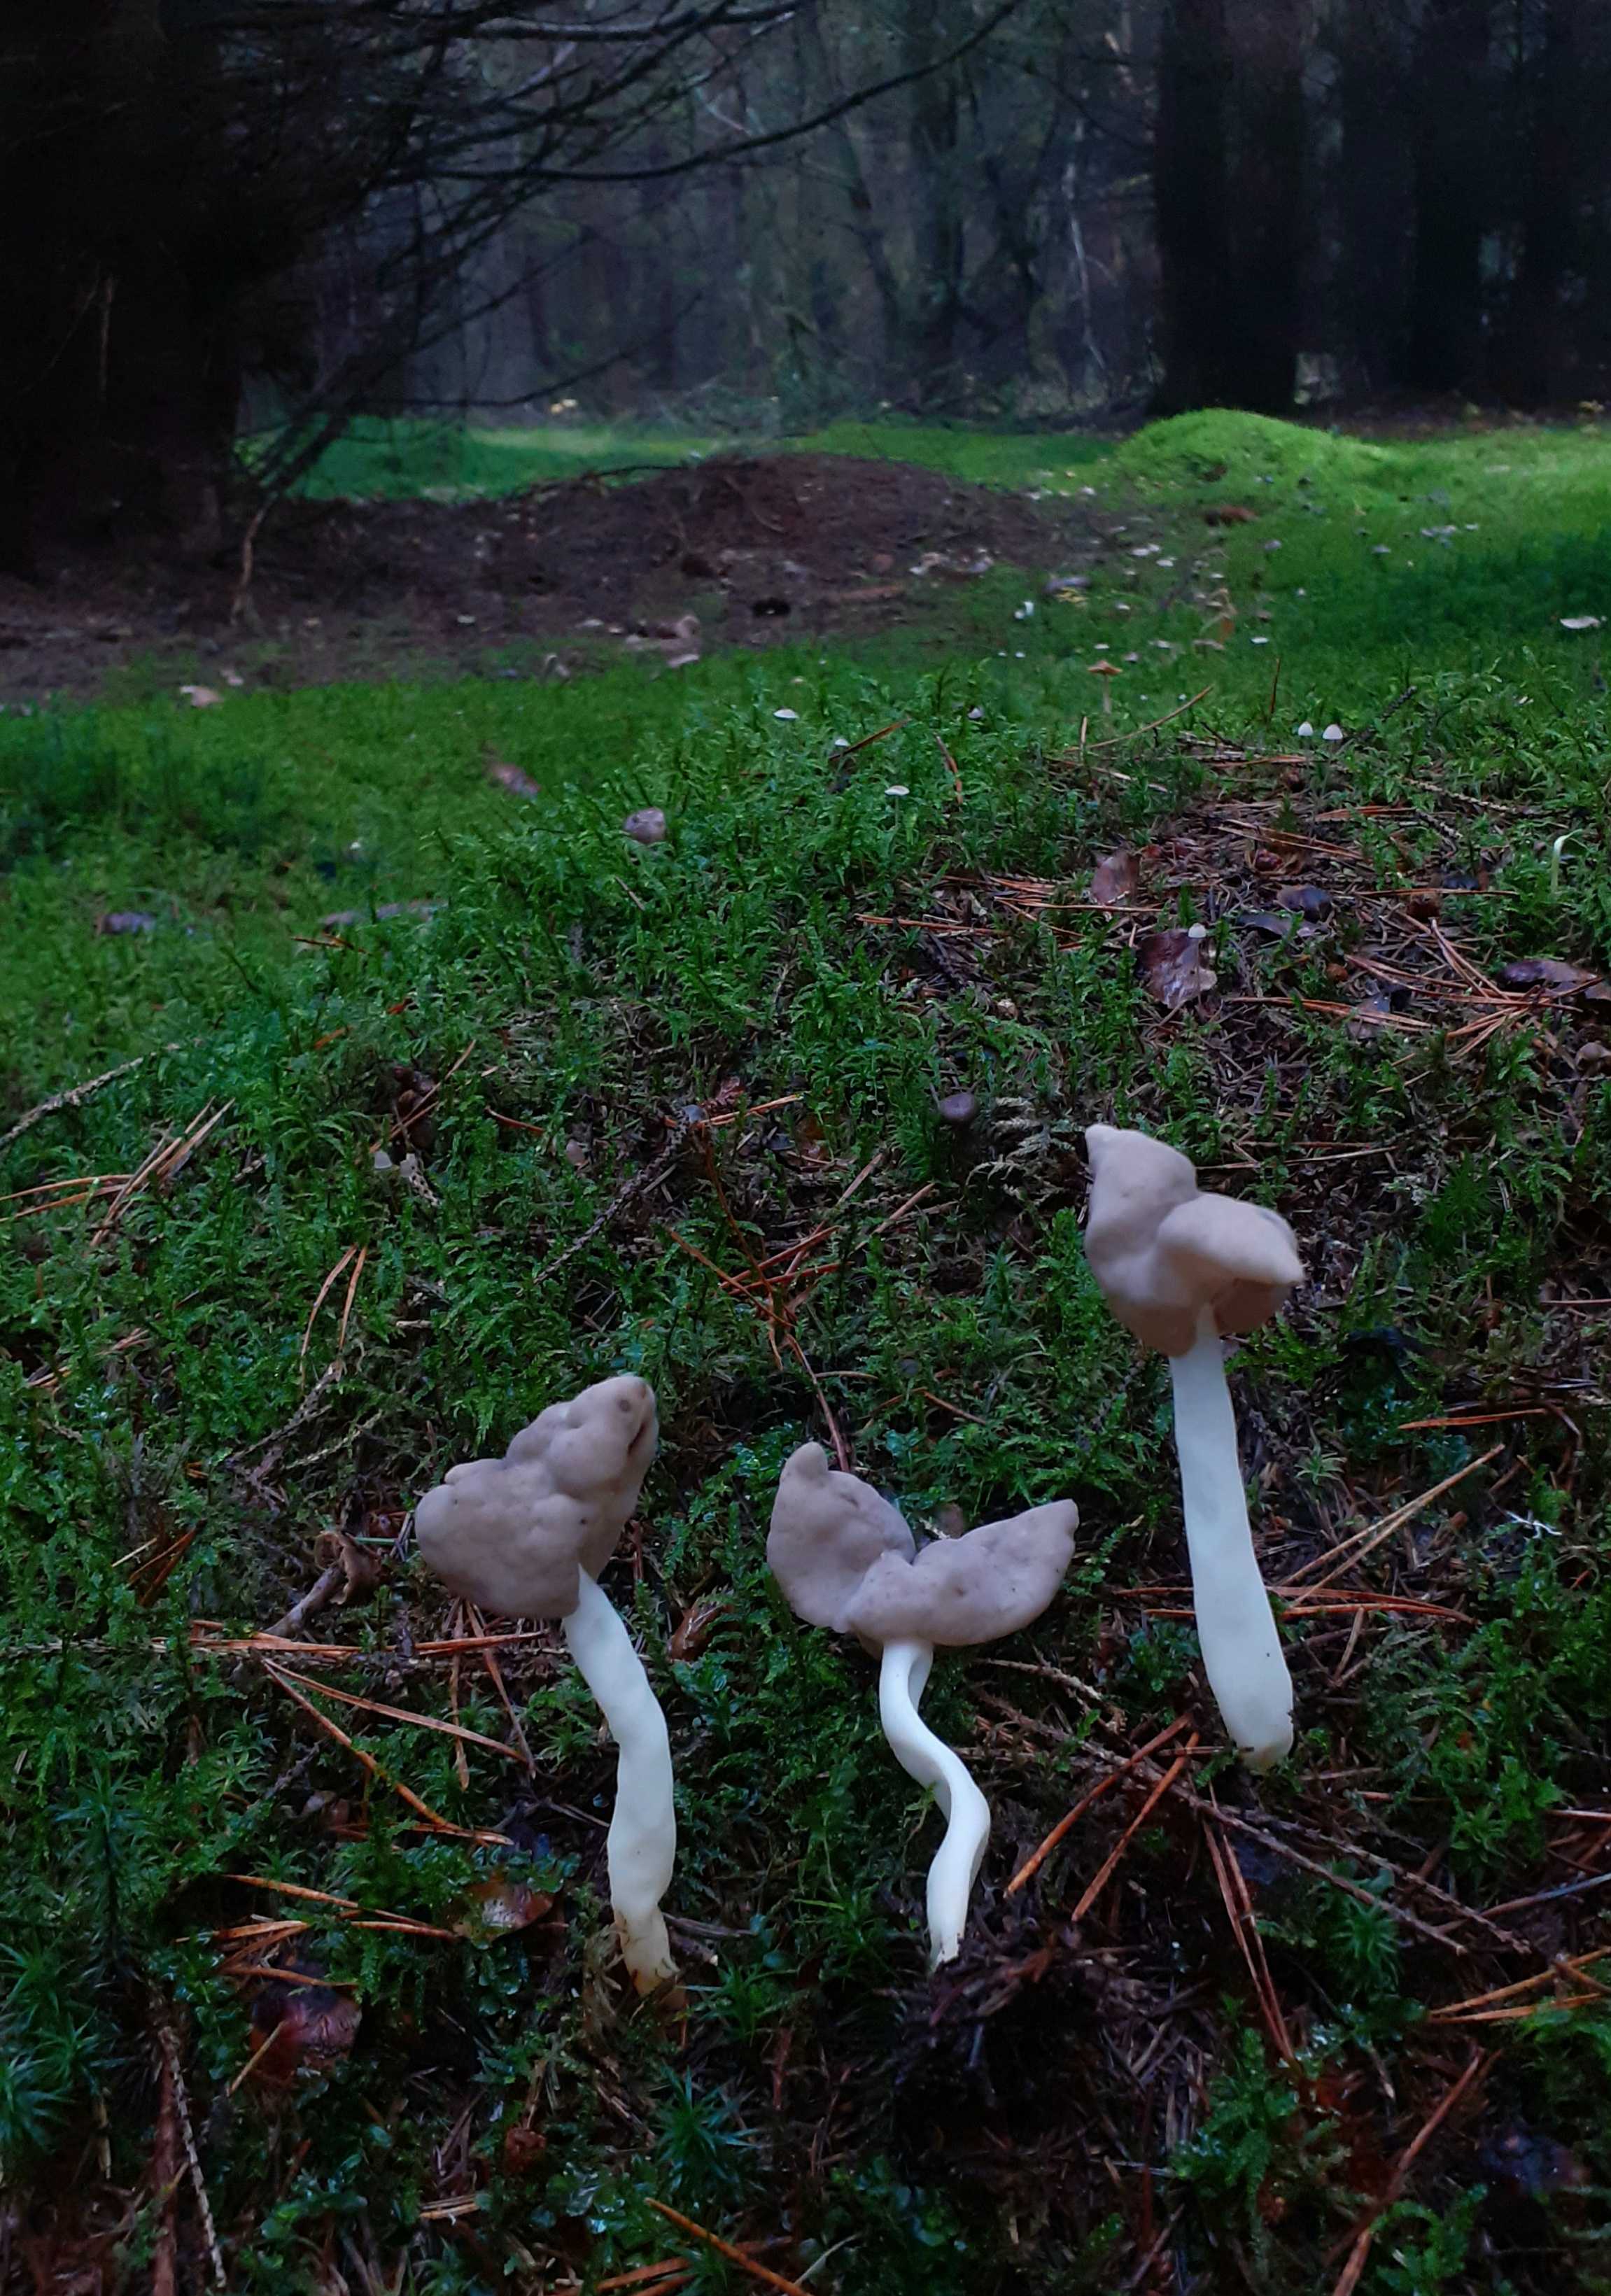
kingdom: Fungi
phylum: Ascomycota
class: Pezizomycetes
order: Pezizales
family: Helvellaceae
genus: Helvella
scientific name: Helvella elastica
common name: elastik-foldhat
